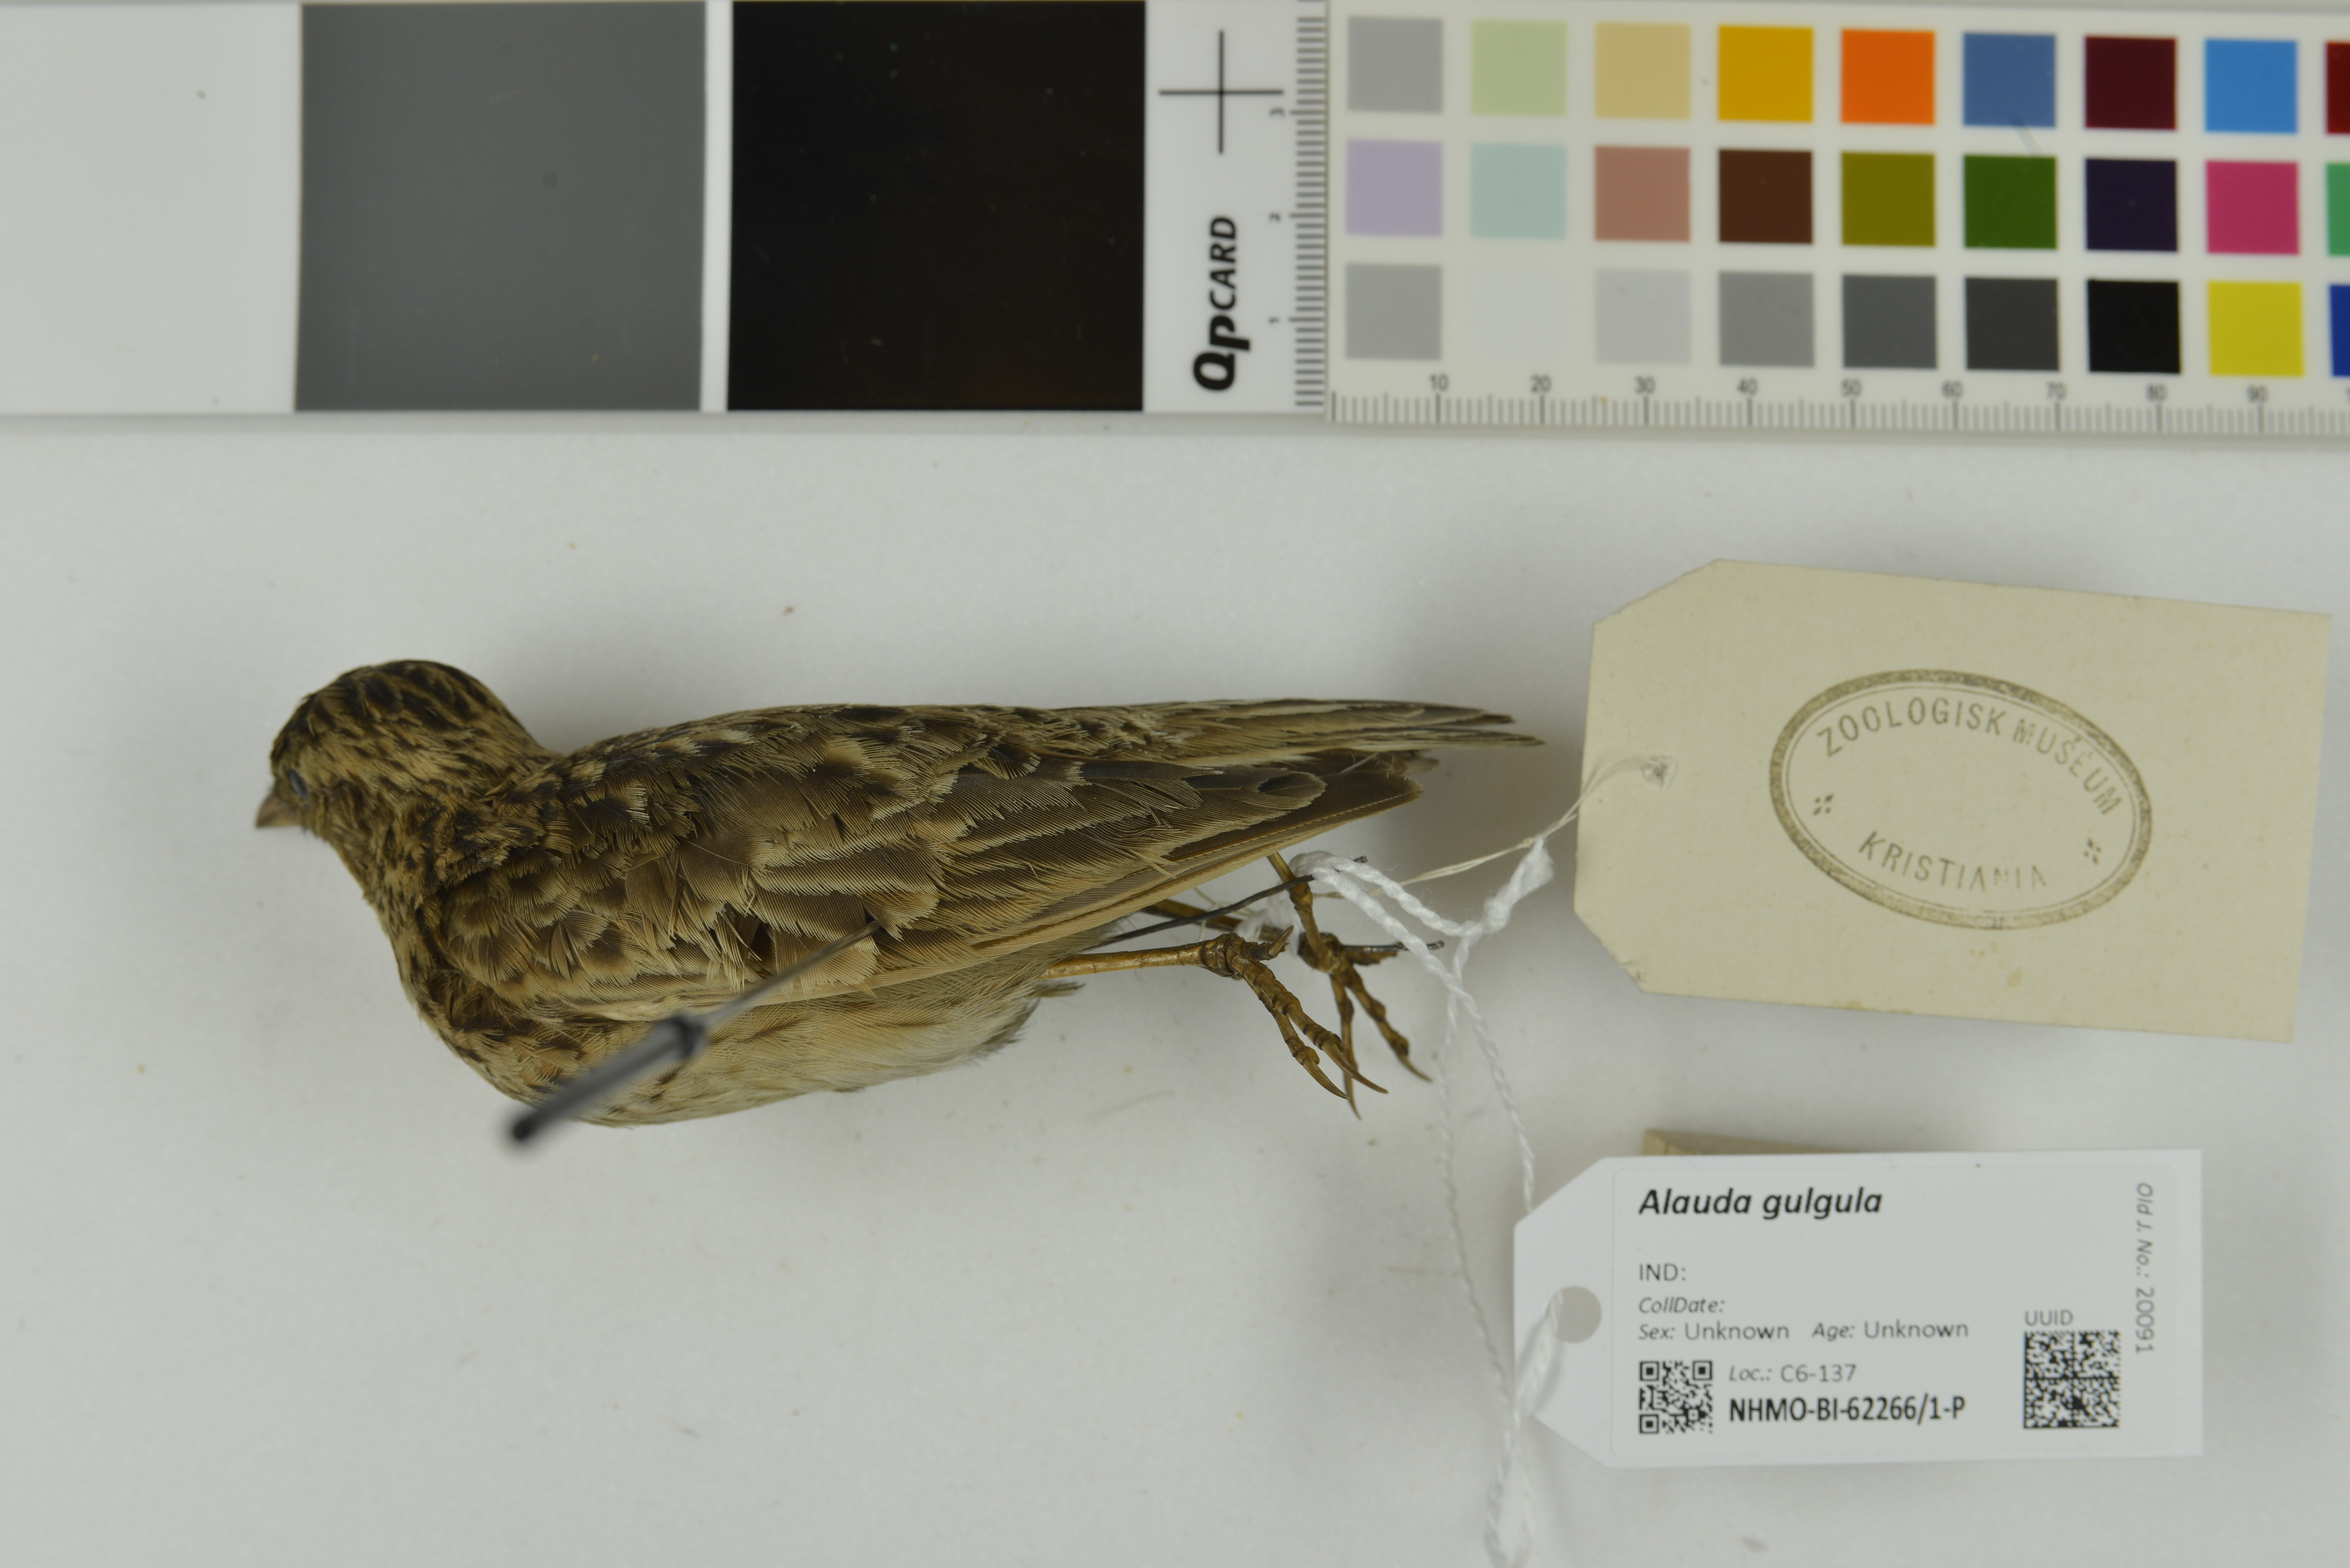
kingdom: Animalia
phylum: Chordata
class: Aves
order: Passeriformes
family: Alaudidae
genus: Alauda
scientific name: Alauda gulgula
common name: Oriental skylark
